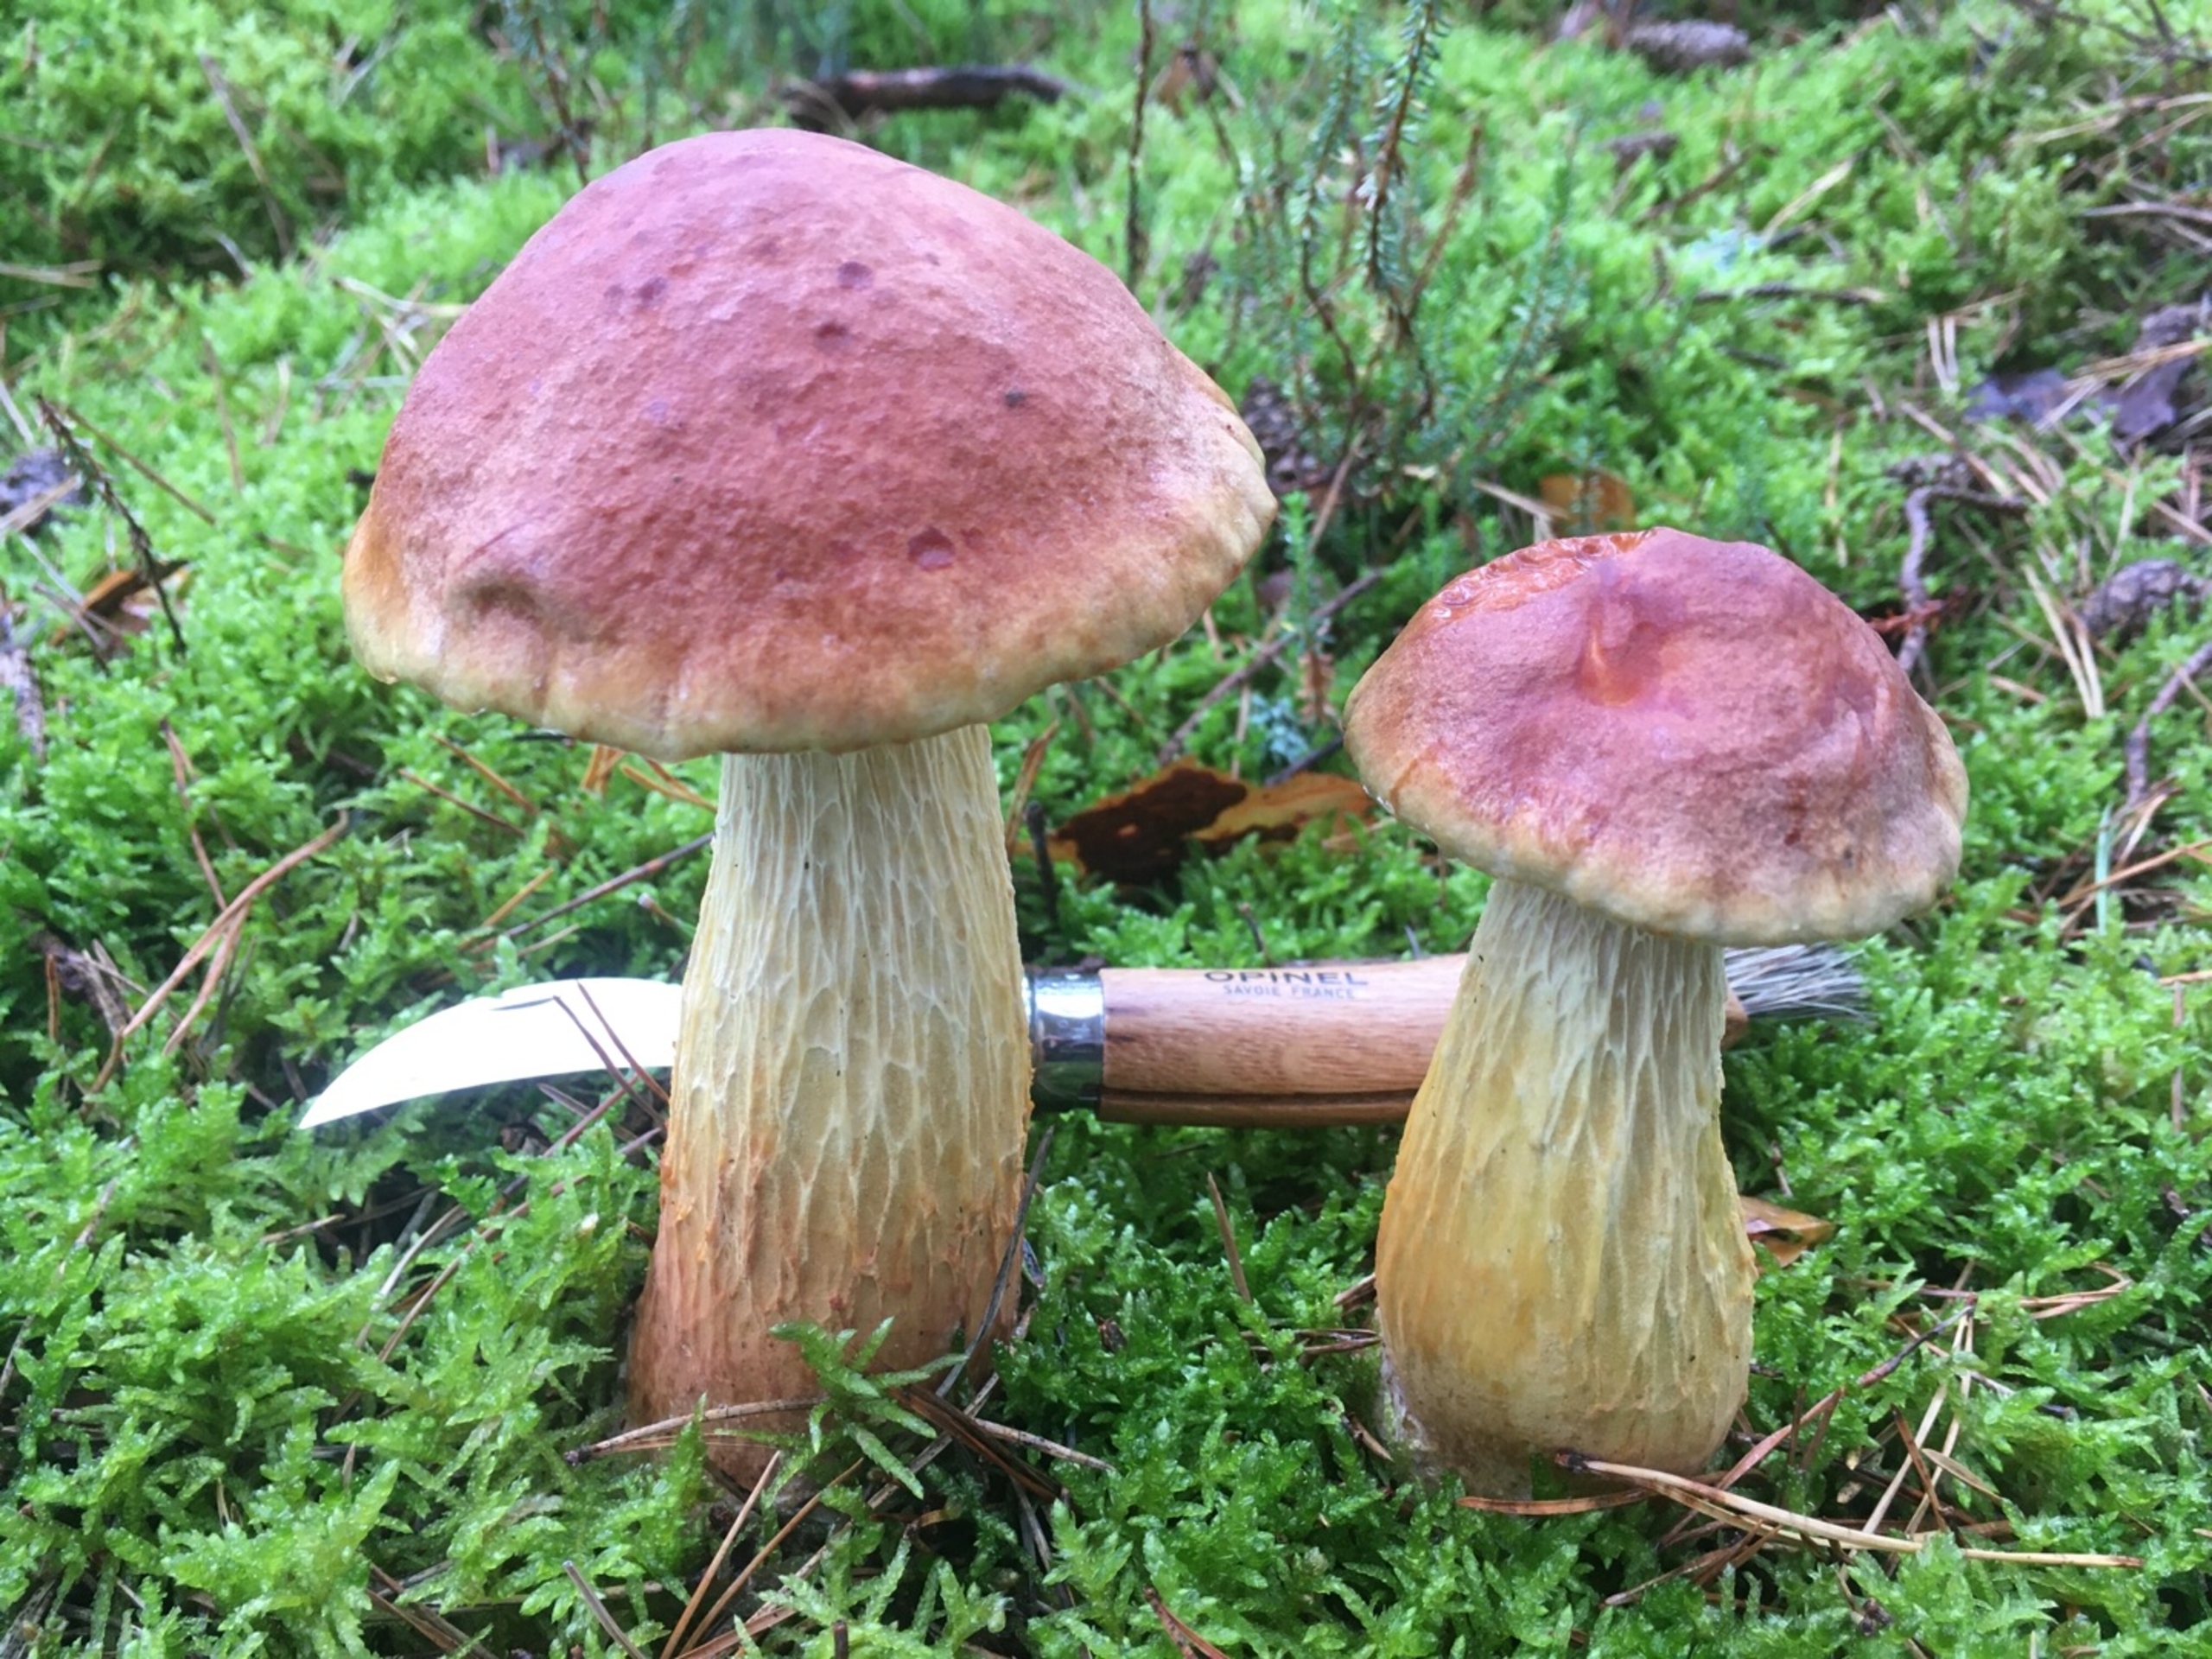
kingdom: Fungi
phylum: Basidiomycota
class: Agaricomycetes
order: Boletales
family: Boletaceae
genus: Aureoboletus
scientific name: Aureoboletus projectellus
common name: Ribbestokket rørhat
